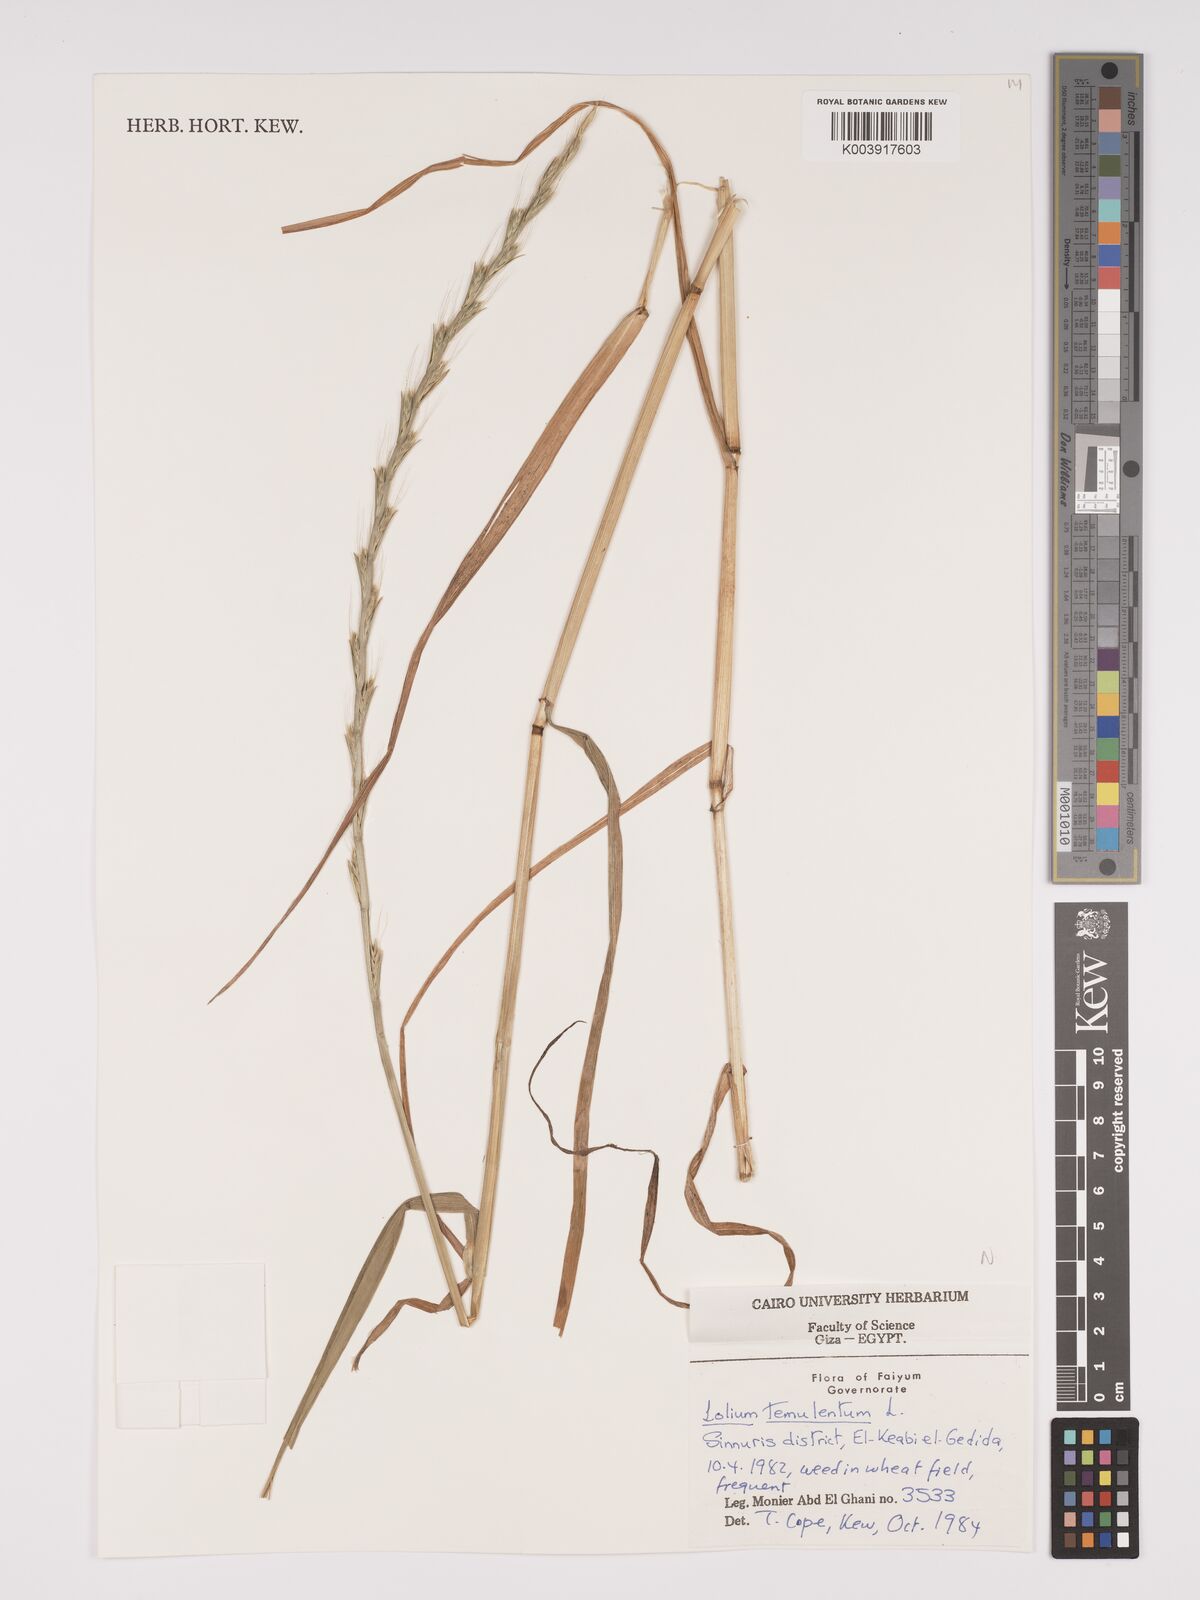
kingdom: Plantae
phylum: Tracheophyta
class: Liliopsida
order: Poales
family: Poaceae
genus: Lolium
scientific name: Lolium temulentum
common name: Darnel
